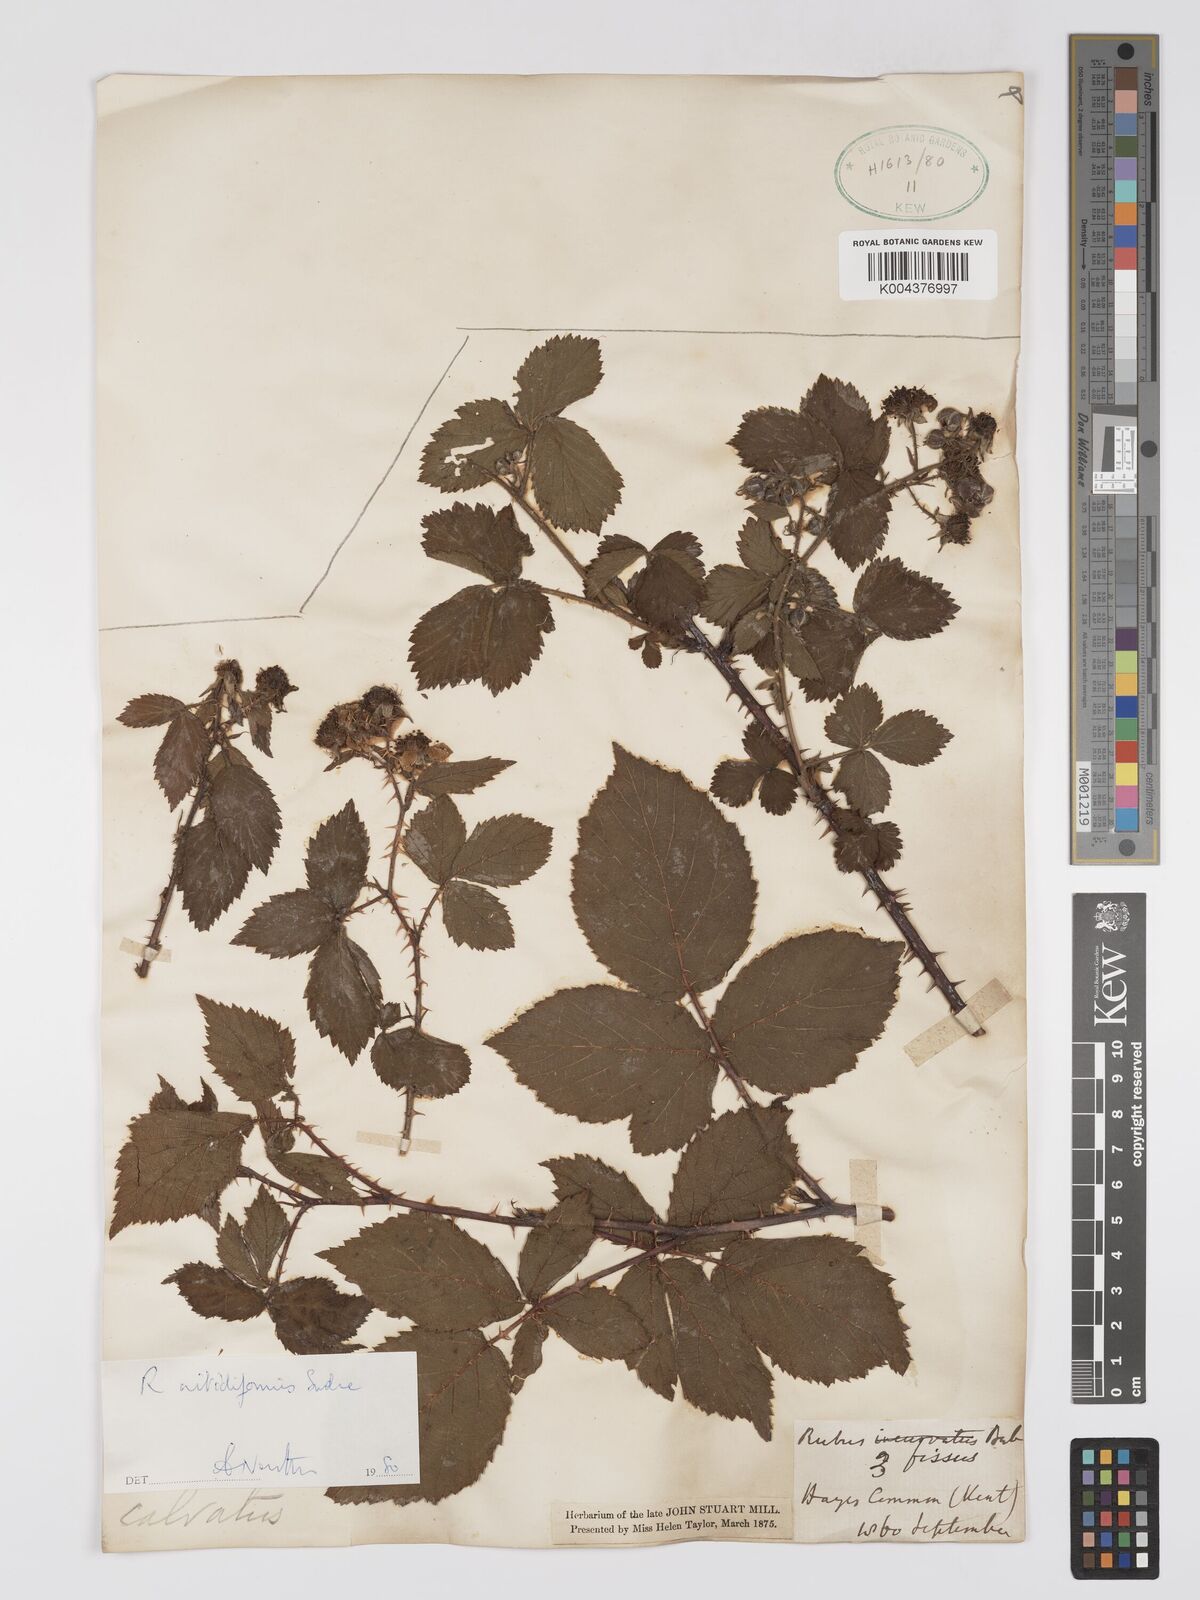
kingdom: Plantae
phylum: Tracheophyta
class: Magnoliopsida
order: Rosales
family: Rosaceae
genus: Rubus
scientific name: Rubus nitidiformis
